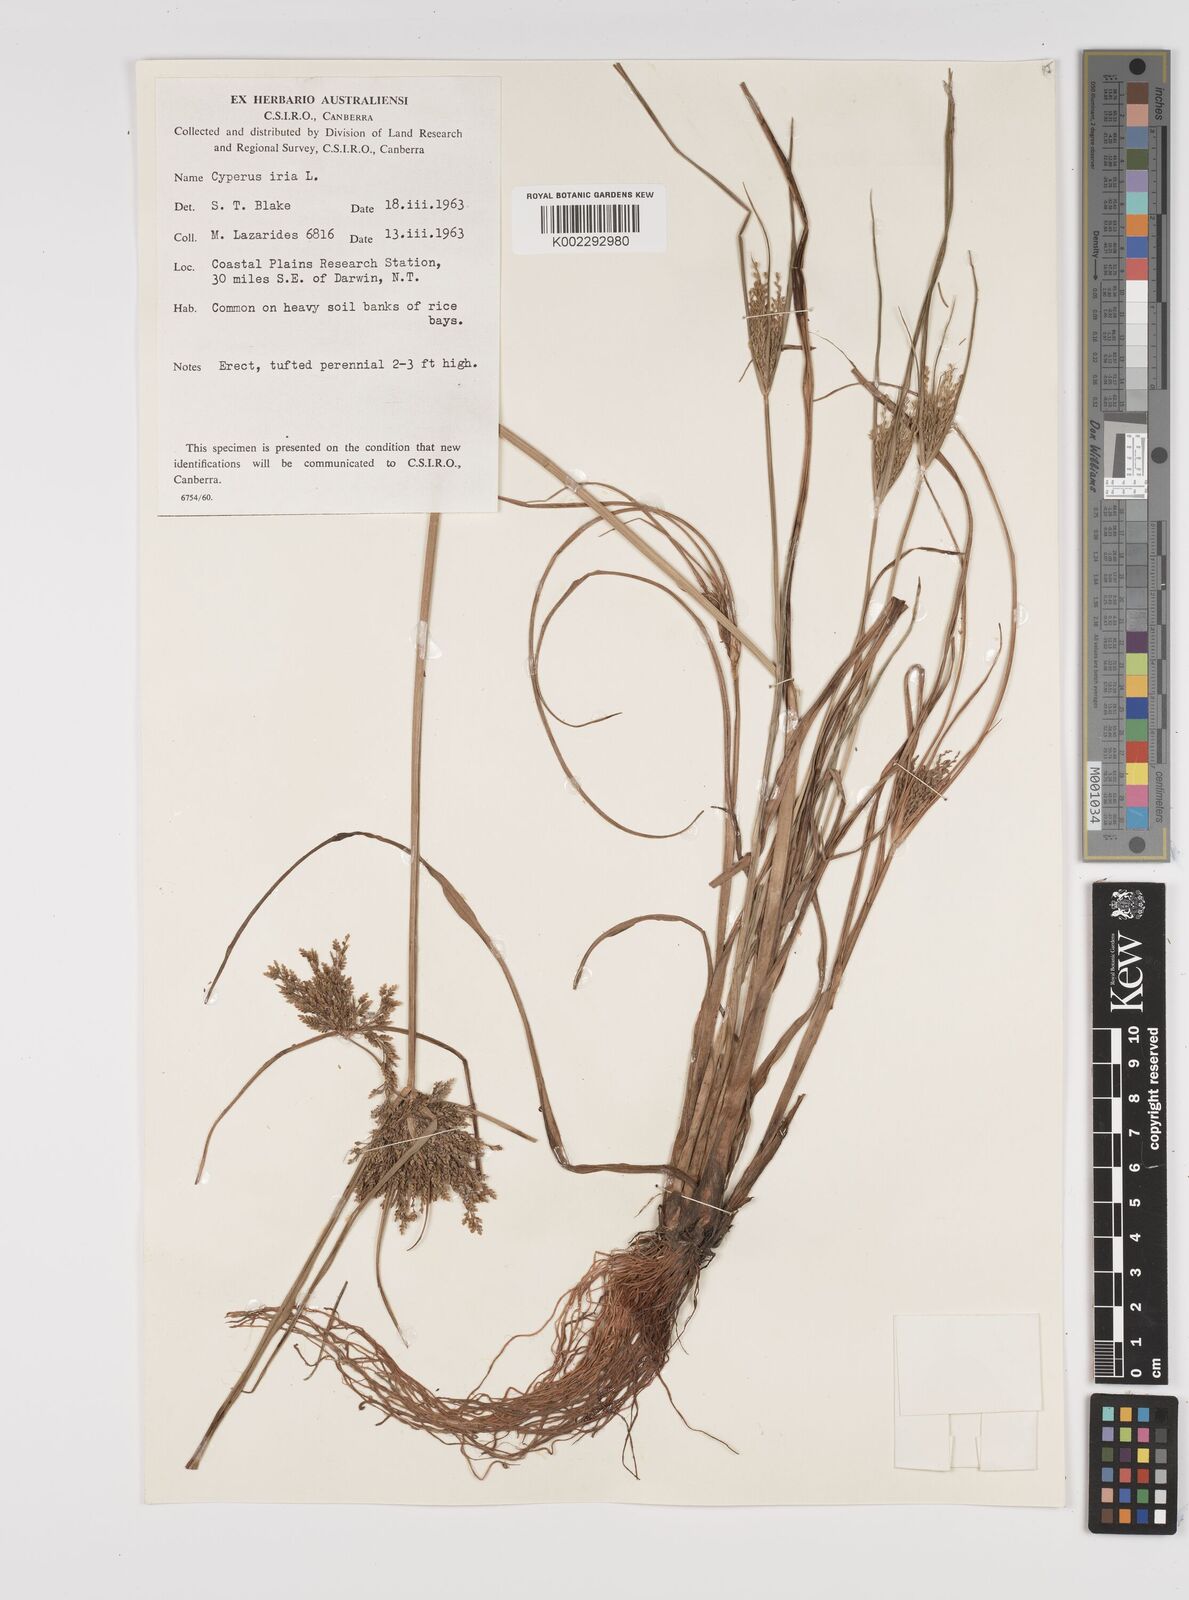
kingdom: Plantae
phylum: Tracheophyta
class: Liliopsida
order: Poales
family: Cyperaceae
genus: Cyperus
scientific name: Cyperus iria
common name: Ricefield flatsedge
